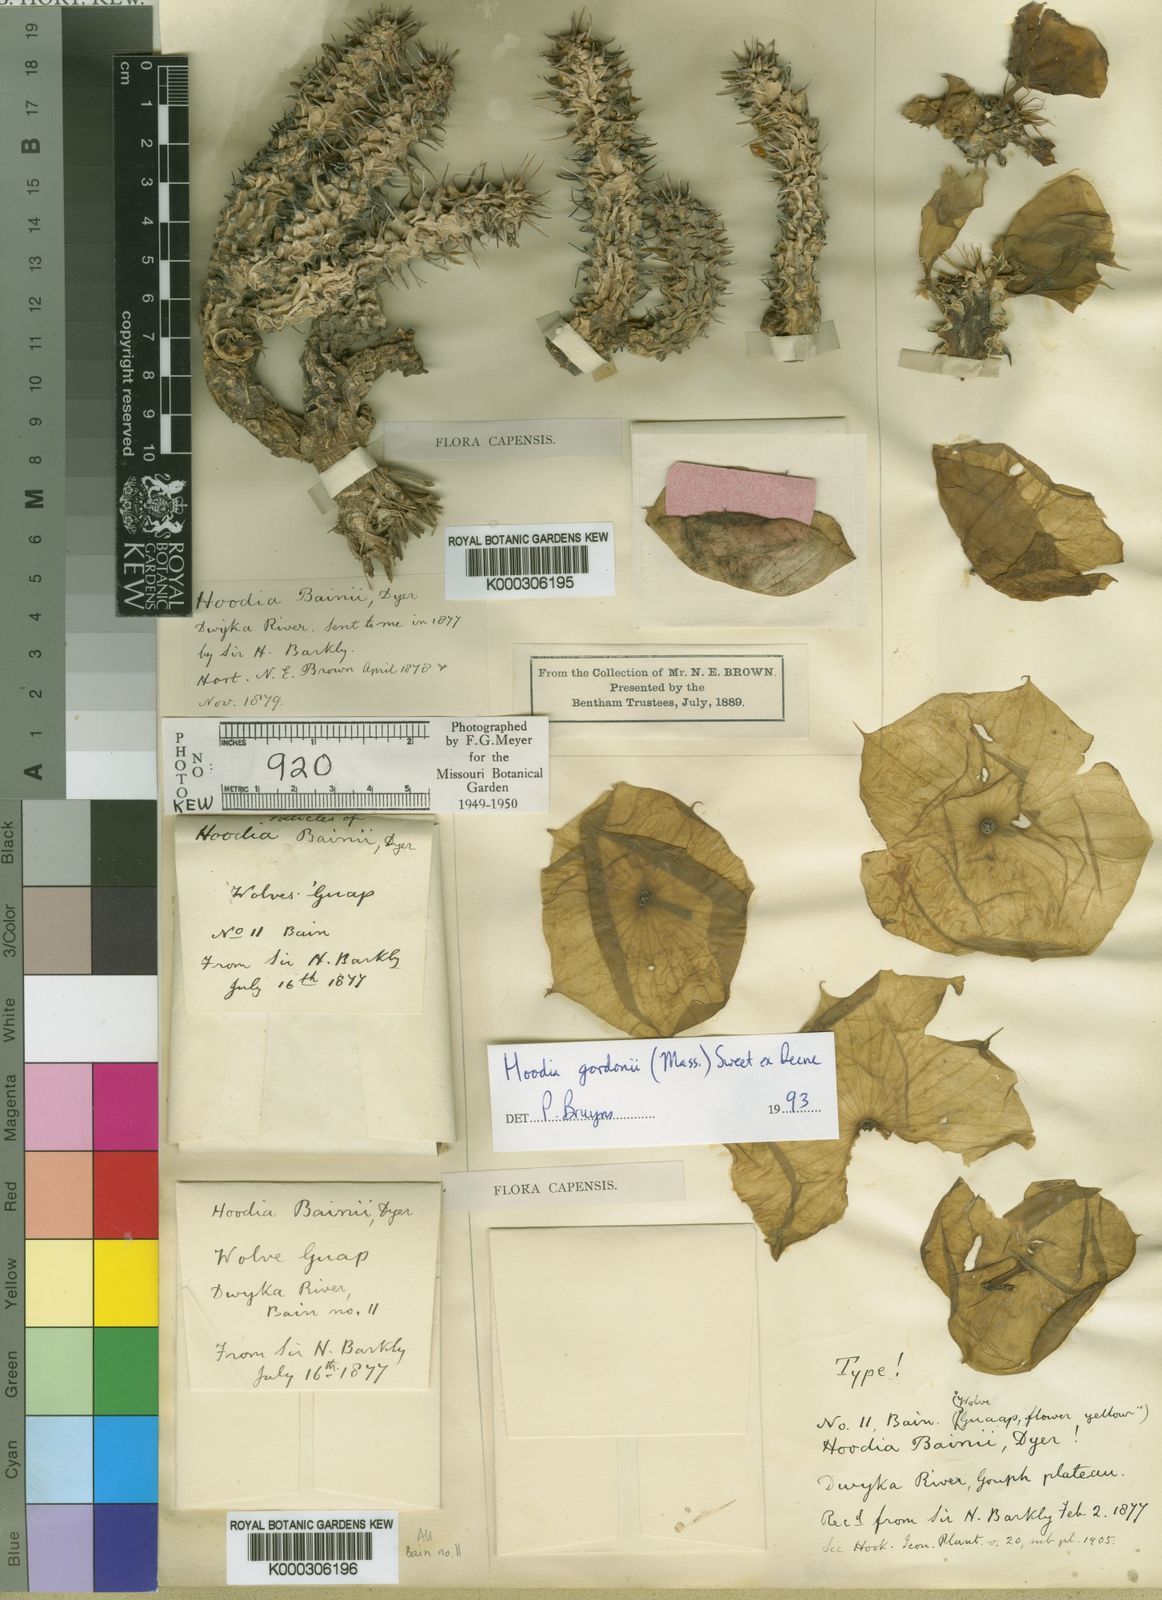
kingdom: Plantae
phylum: Tracheophyta
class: Magnoliopsida
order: Gentianales
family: Apocynaceae
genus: Ceropegia
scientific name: Ceropegia gordonii
